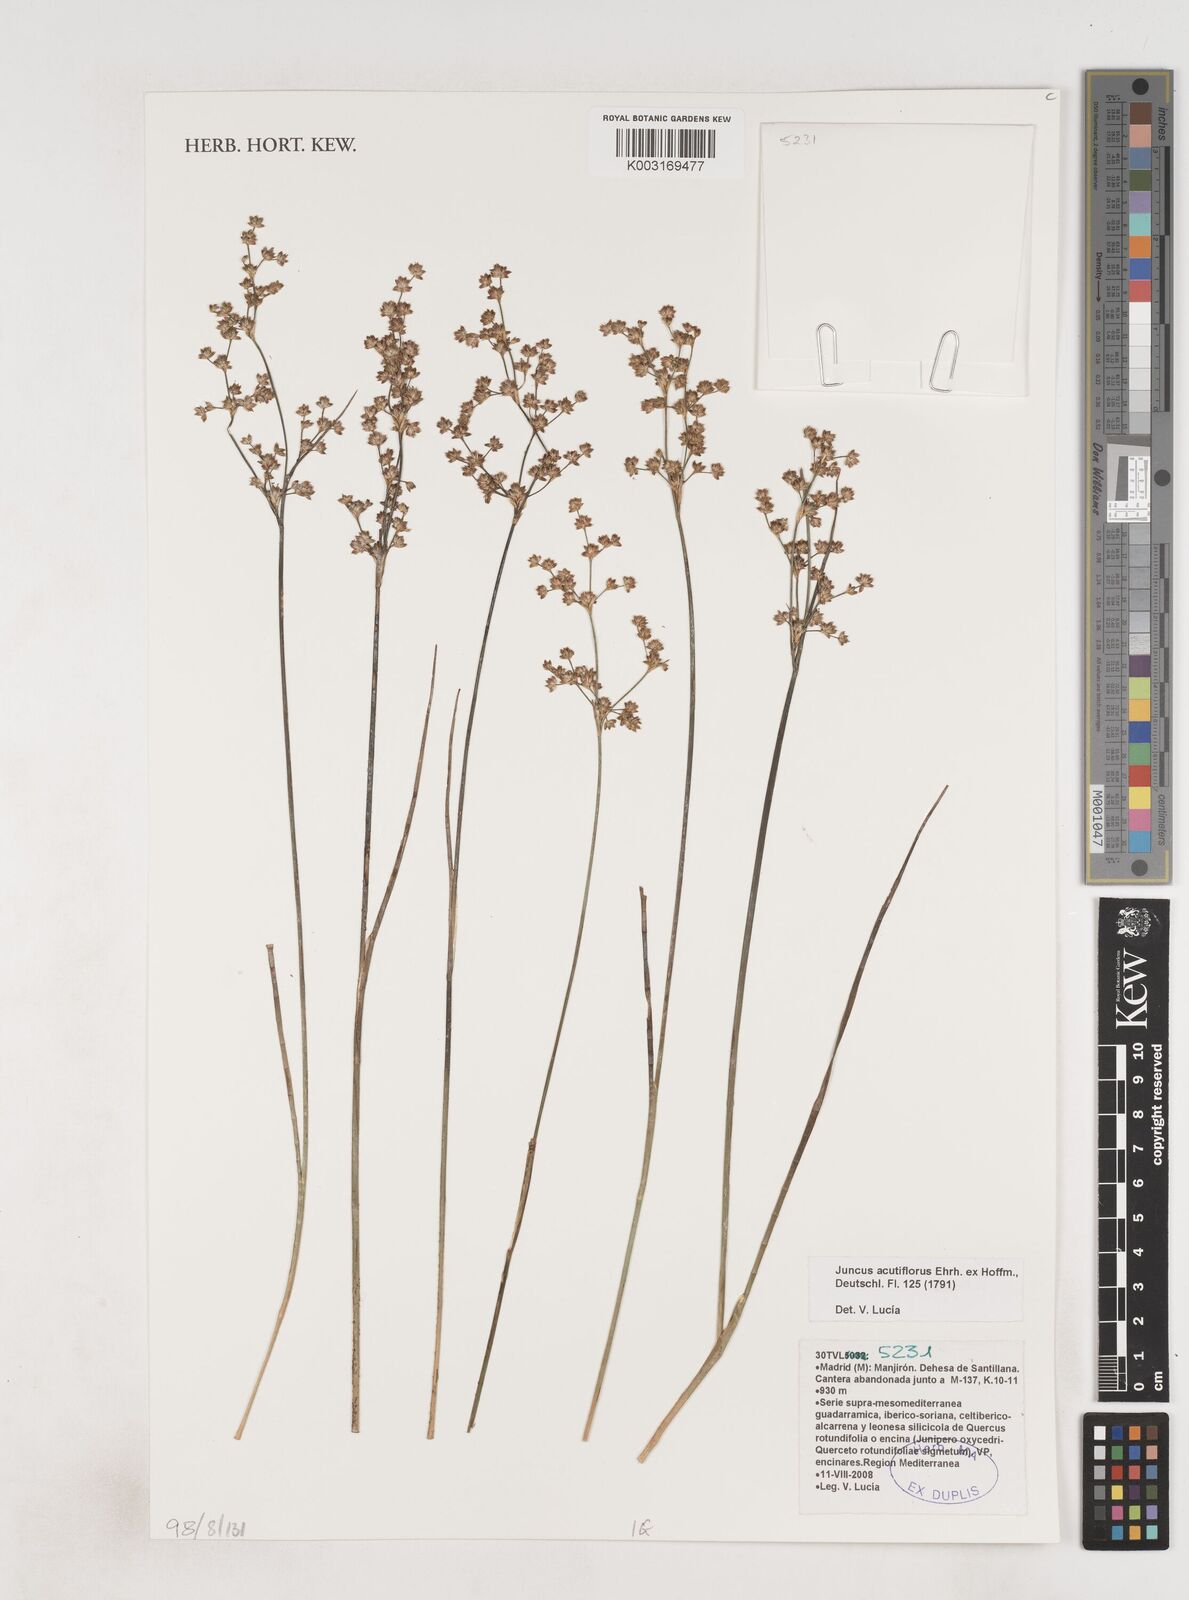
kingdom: Plantae
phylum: Tracheophyta
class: Liliopsida
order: Poales
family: Juncaceae
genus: Juncus
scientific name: Juncus acutiflorus
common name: Sharp-flowered rush
